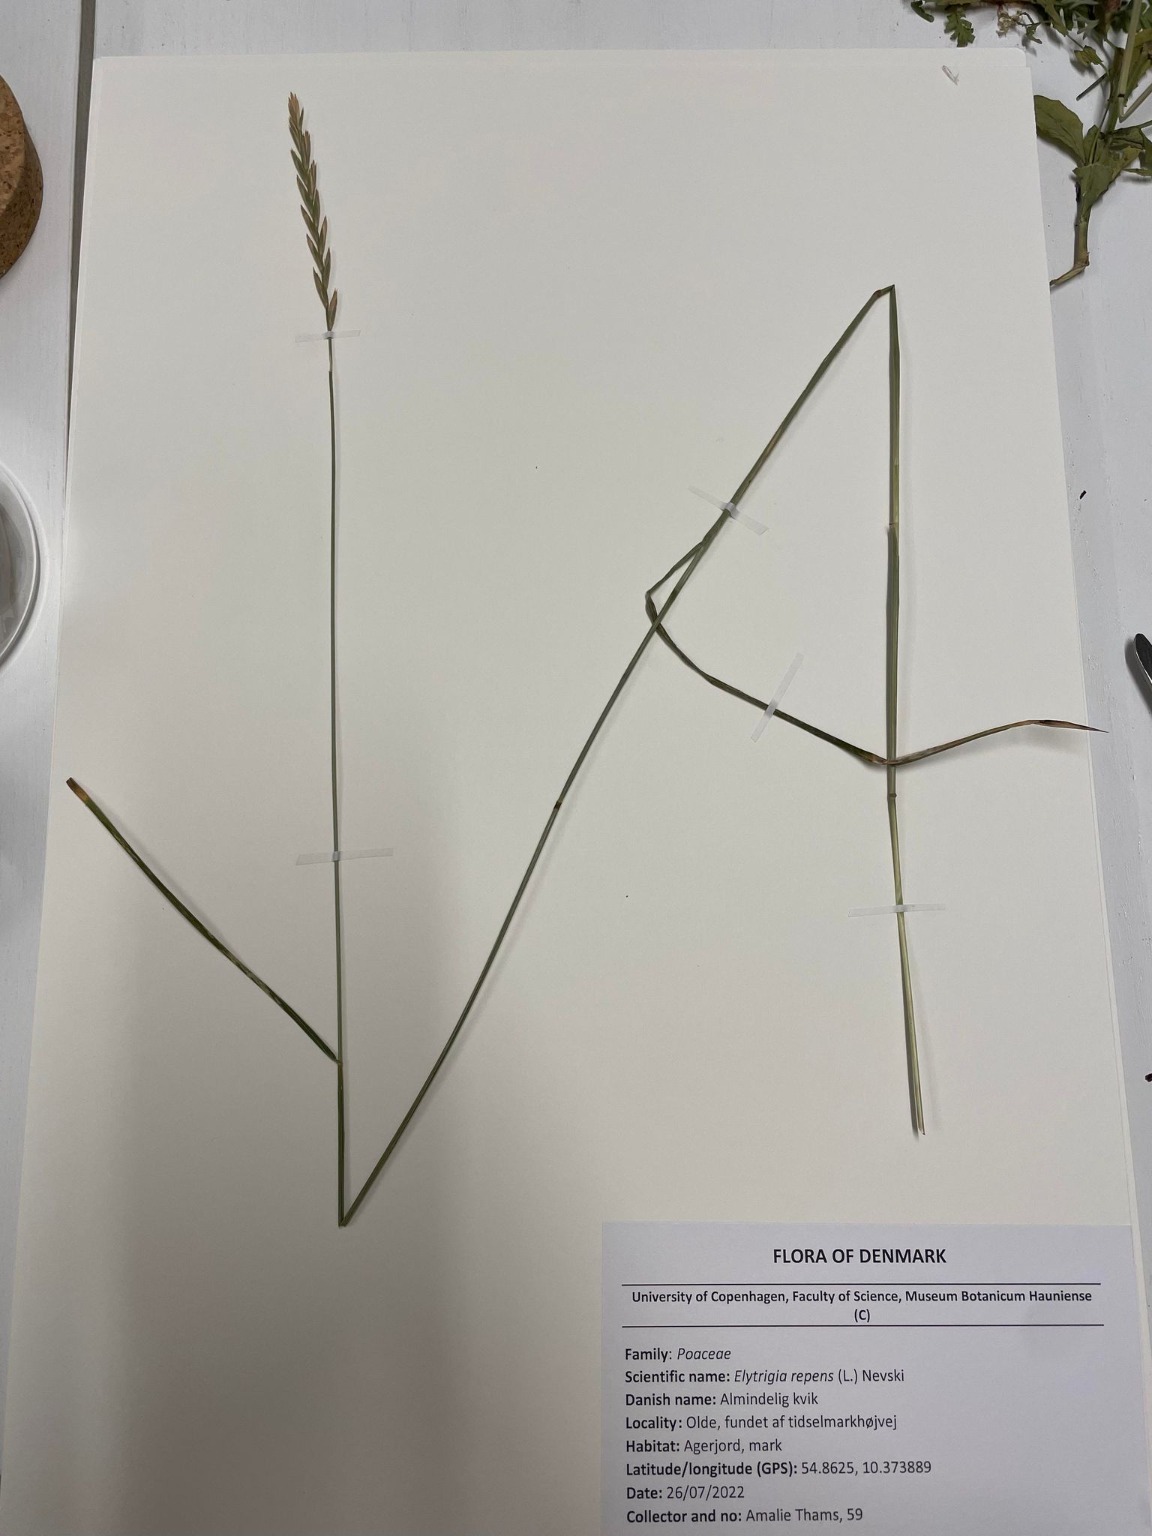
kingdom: Plantae
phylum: Tracheophyta
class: Liliopsida
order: Poales
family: Poaceae
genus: Elymus
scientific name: Elymus repens
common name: Almindelig kvik
